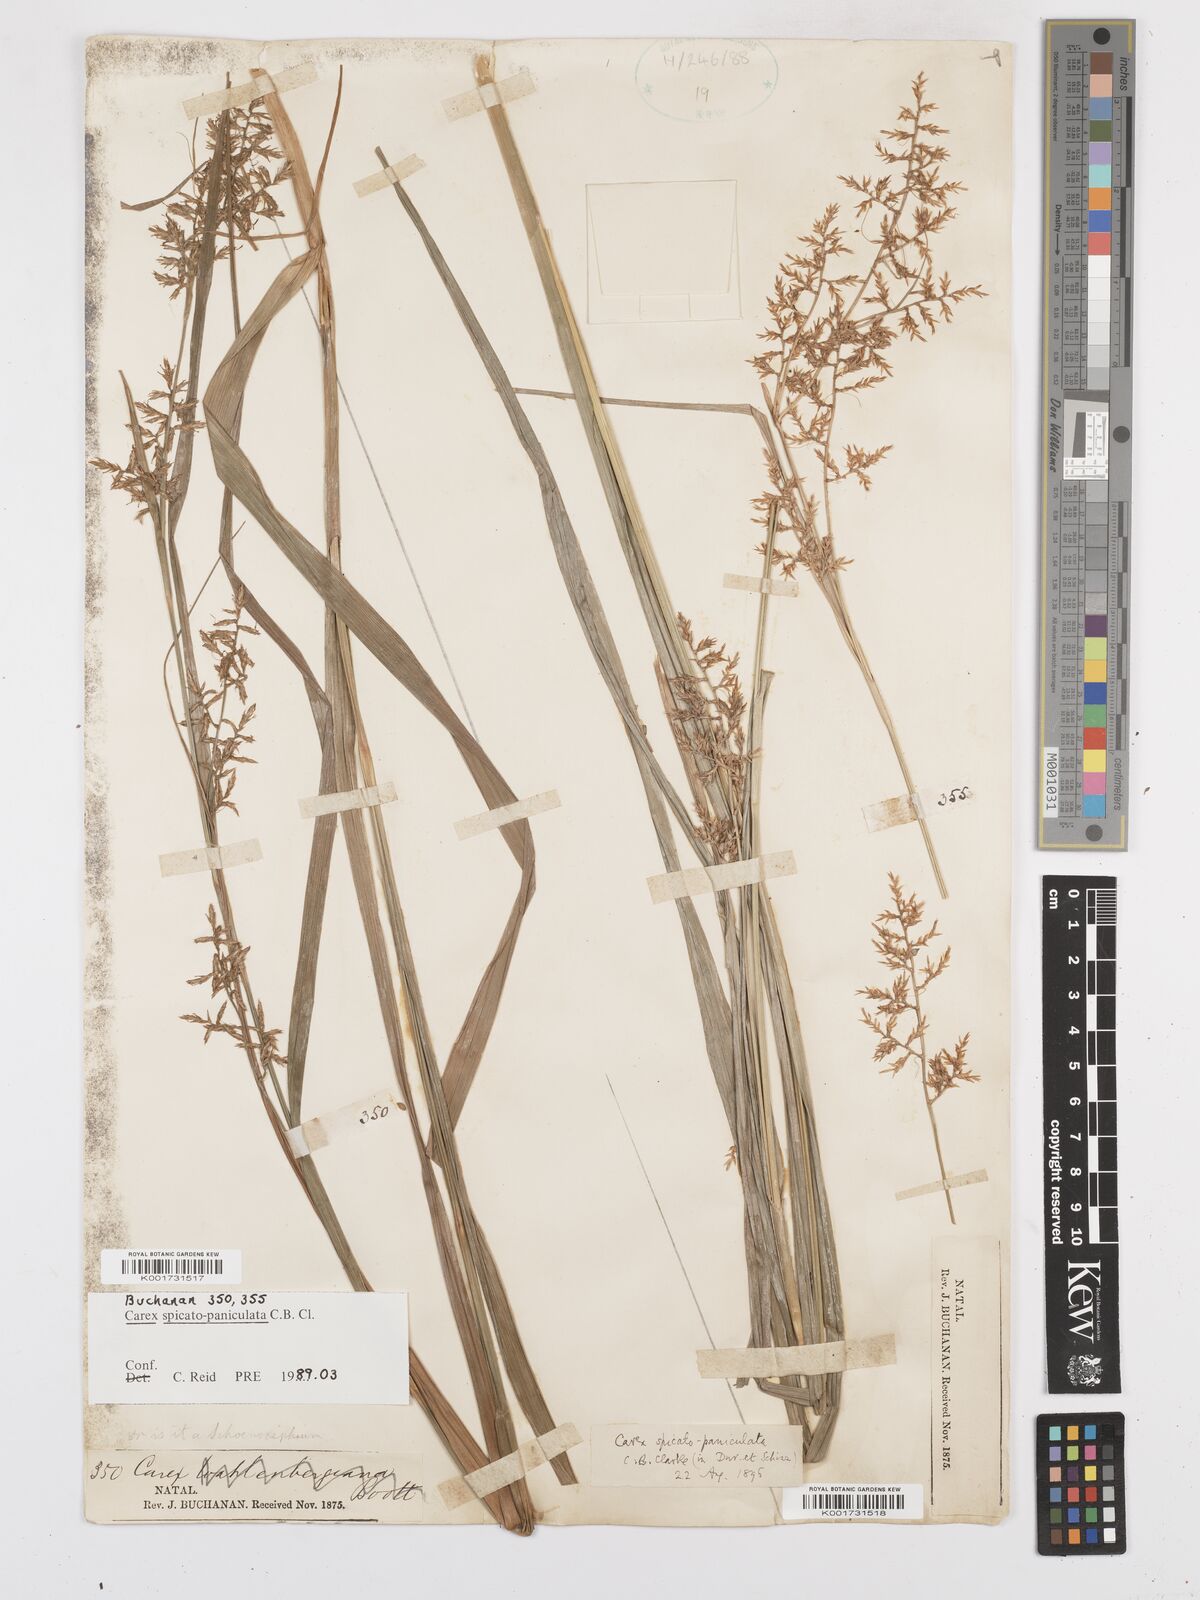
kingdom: Plantae
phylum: Tracheophyta
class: Liliopsida
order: Poales
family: Cyperaceae
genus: Carex
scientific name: Carex spicatopaniculata
